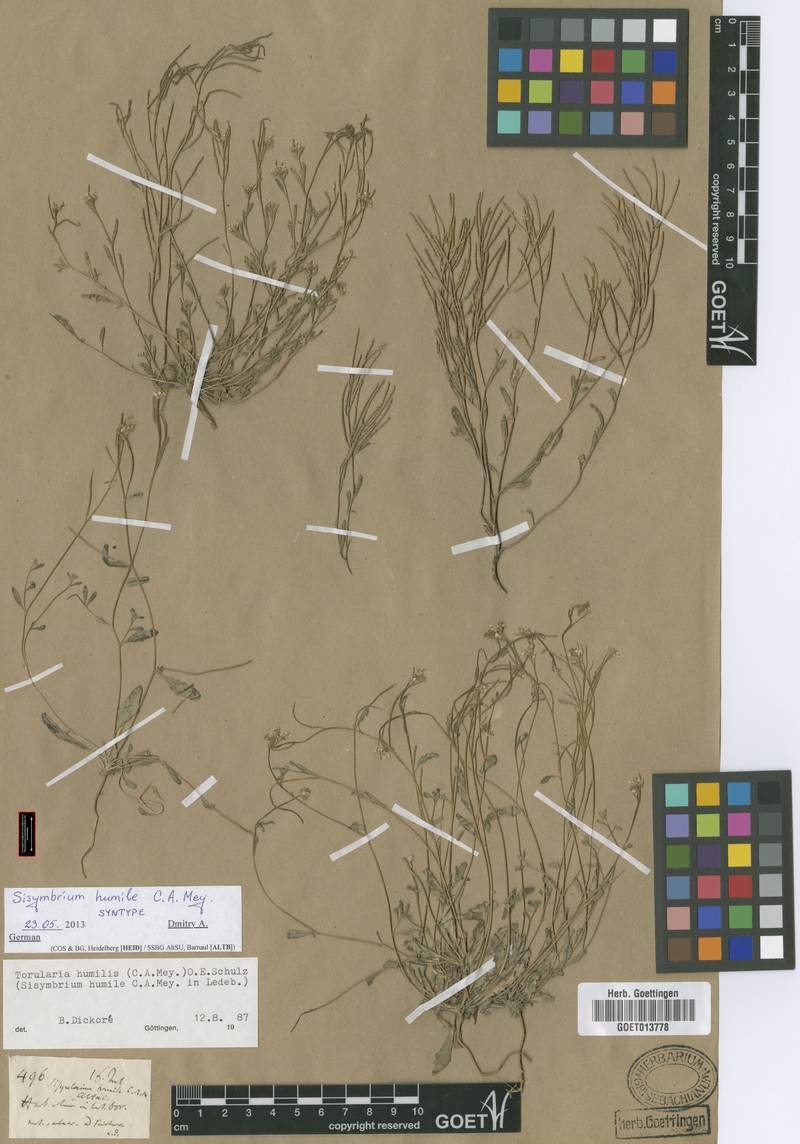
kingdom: Plantae
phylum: Tracheophyta
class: Magnoliopsida
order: Brassicales
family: Brassicaceae
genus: Braya
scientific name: Braya humilis
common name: Alpine northern rockcress
